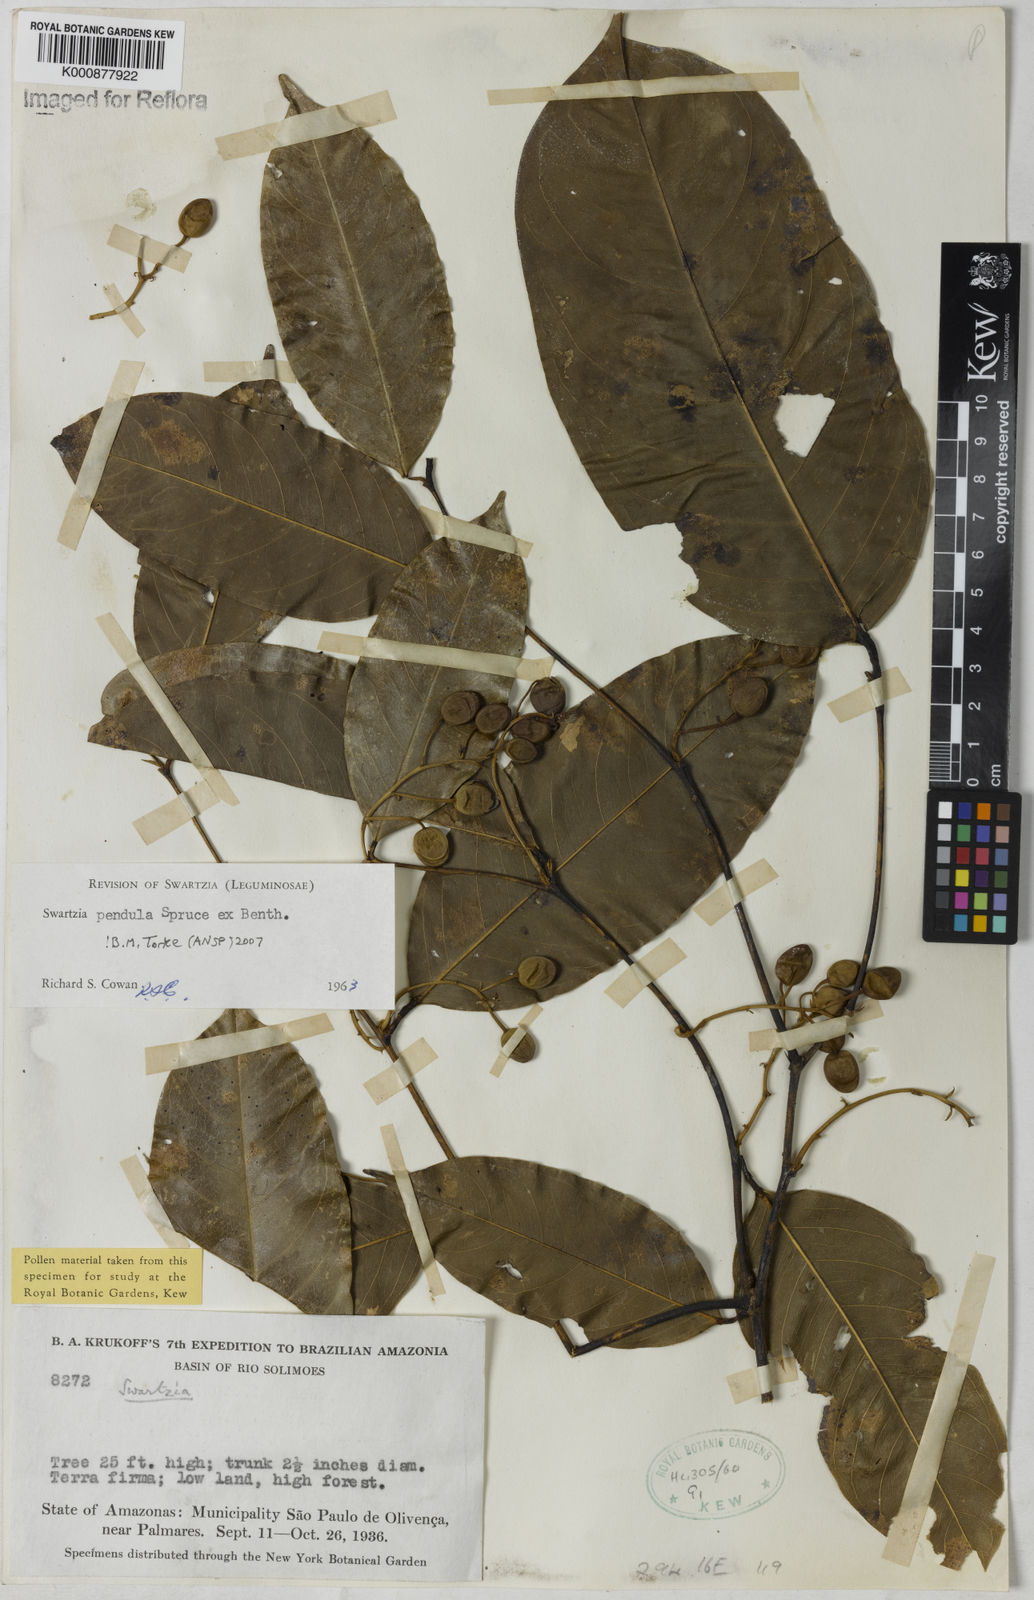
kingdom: Plantae
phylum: Tracheophyta
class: Magnoliopsida
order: Fabales
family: Fabaceae
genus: Swartzia
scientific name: Swartzia pendula
